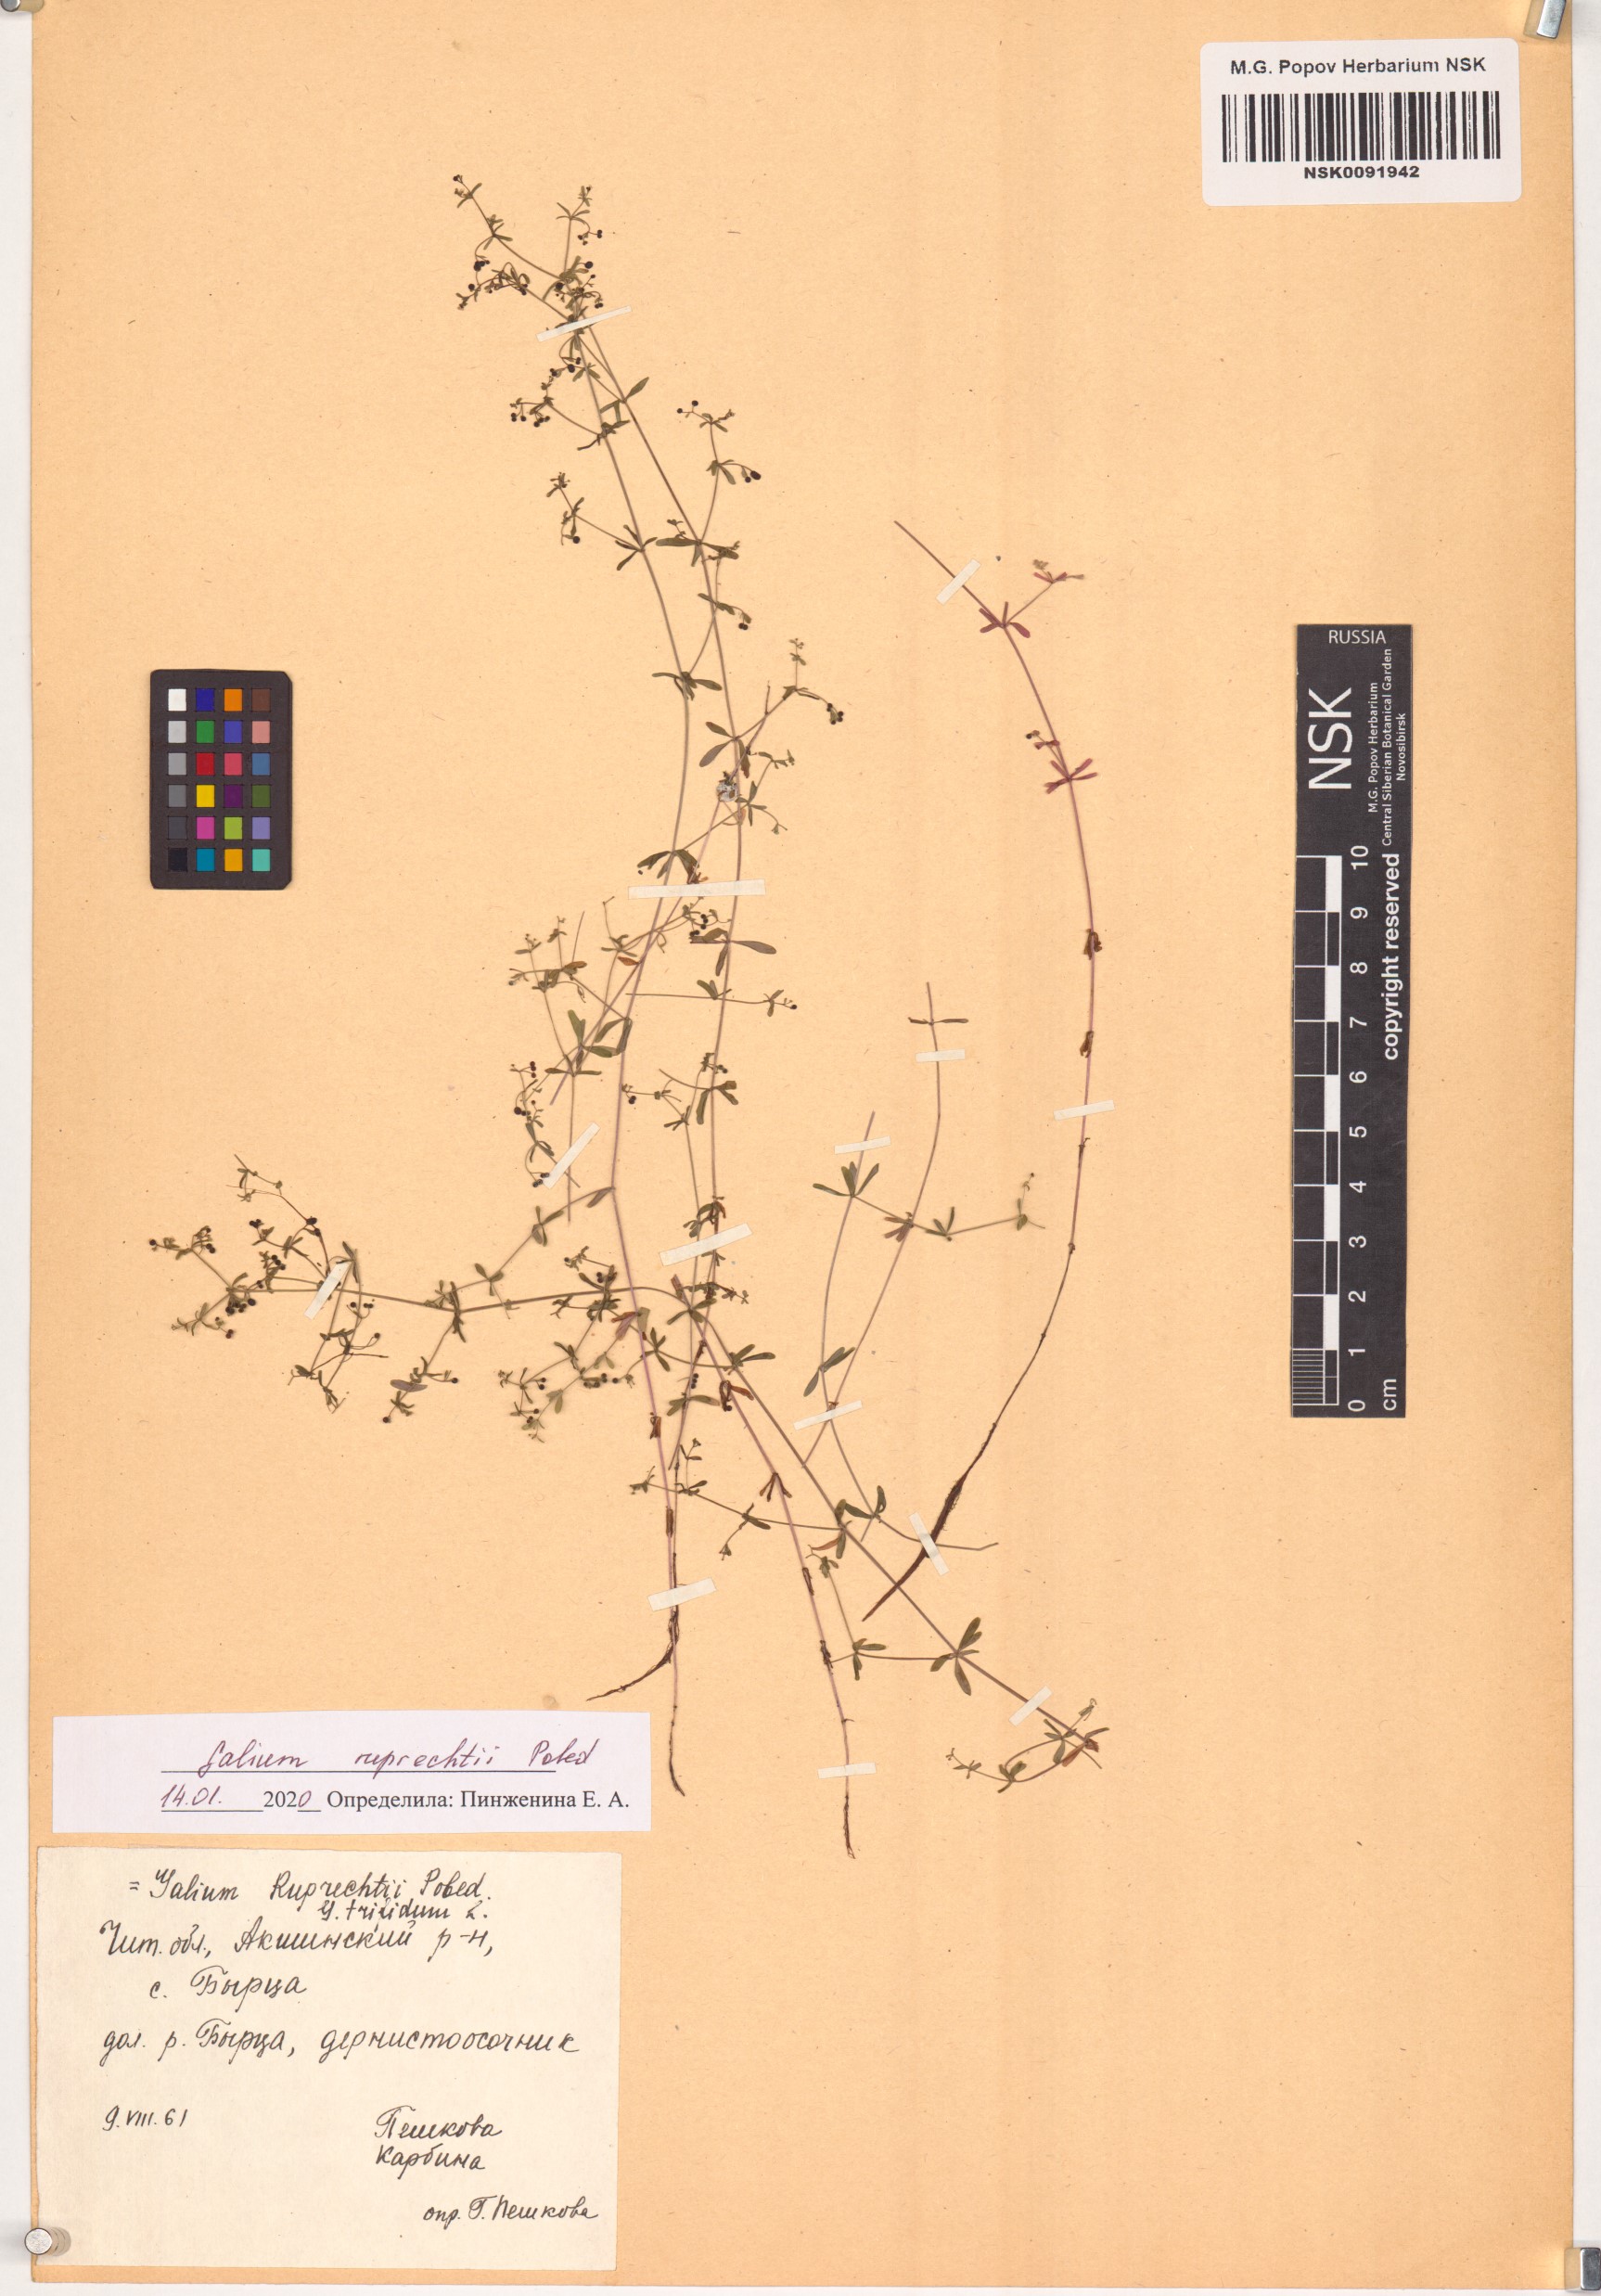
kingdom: Plantae
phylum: Tracheophyta
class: Magnoliopsida
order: Gentianales
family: Rubiaceae
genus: Galium
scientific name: Galium trifidum
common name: Small bedstraw
